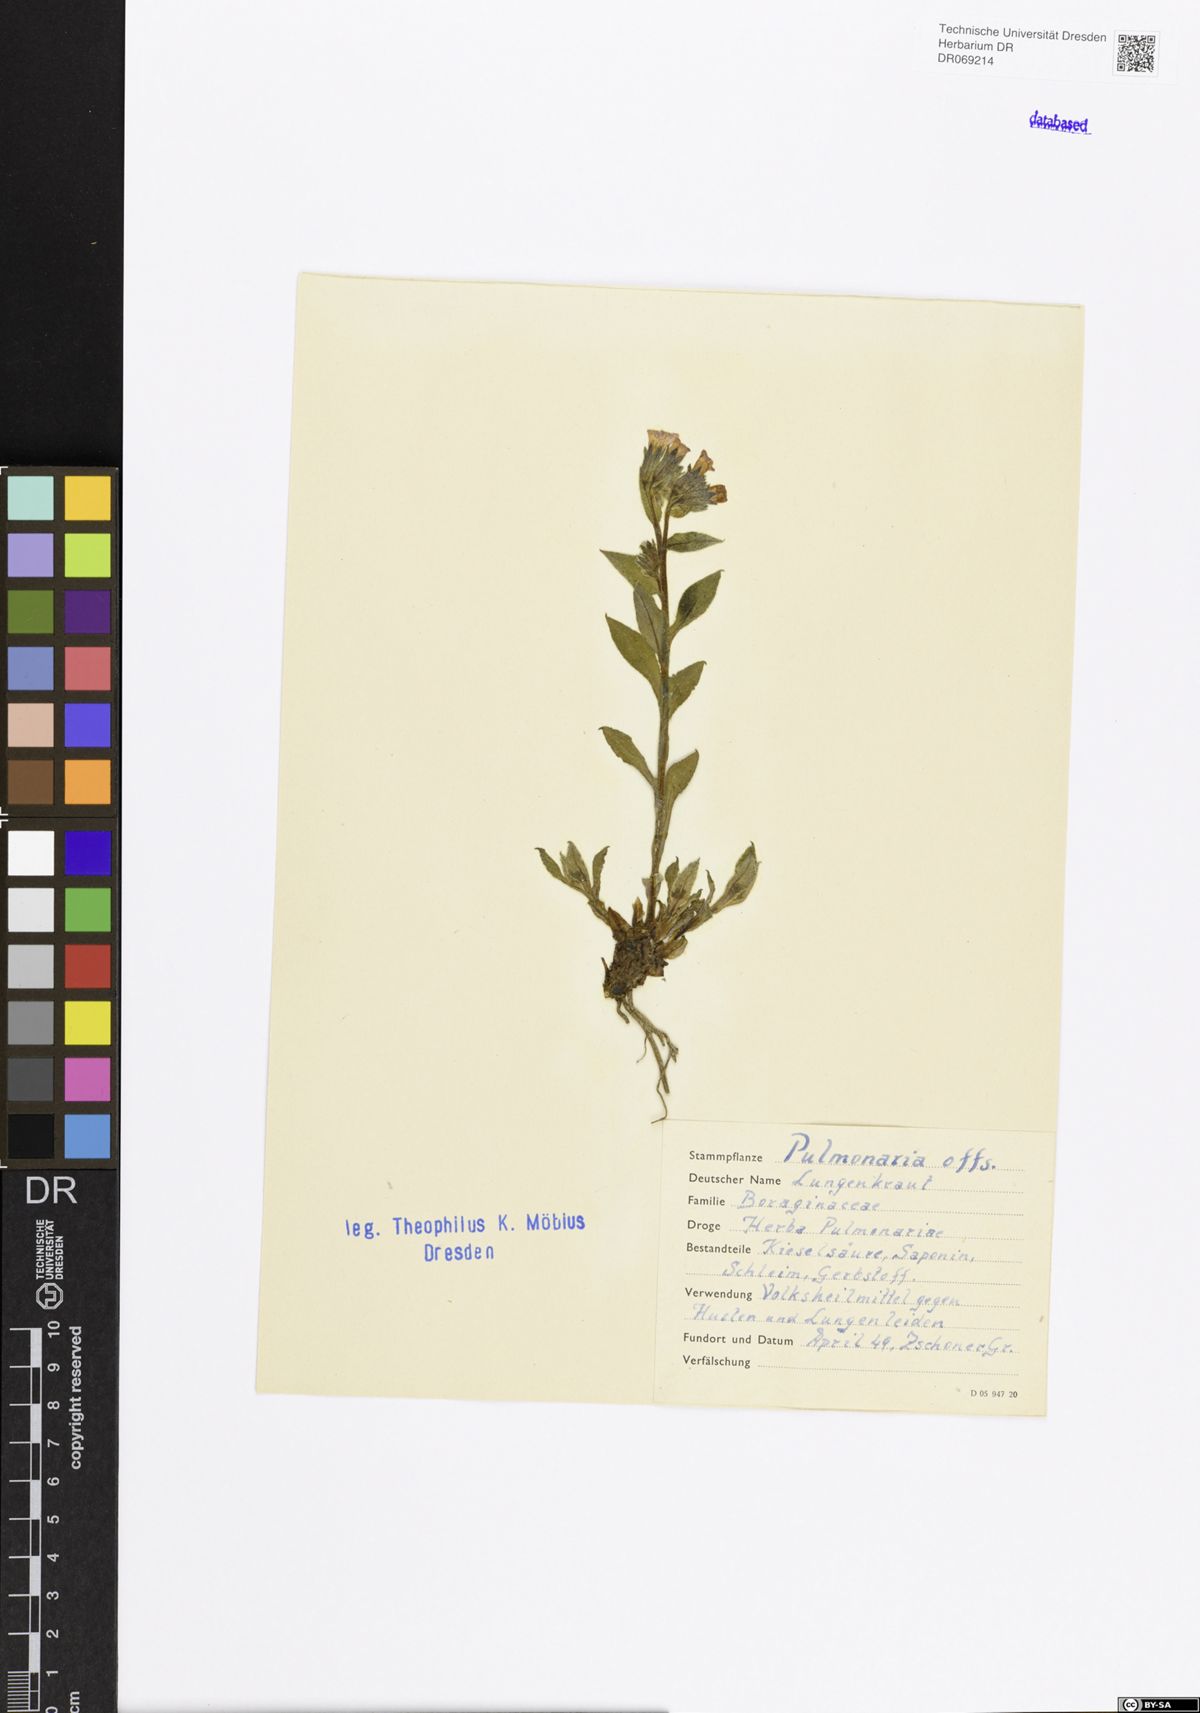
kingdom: Plantae
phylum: Tracheophyta
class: Magnoliopsida
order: Boraginales
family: Boraginaceae
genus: Pulmonaria
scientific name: Pulmonaria officinalis
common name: Lungwort
